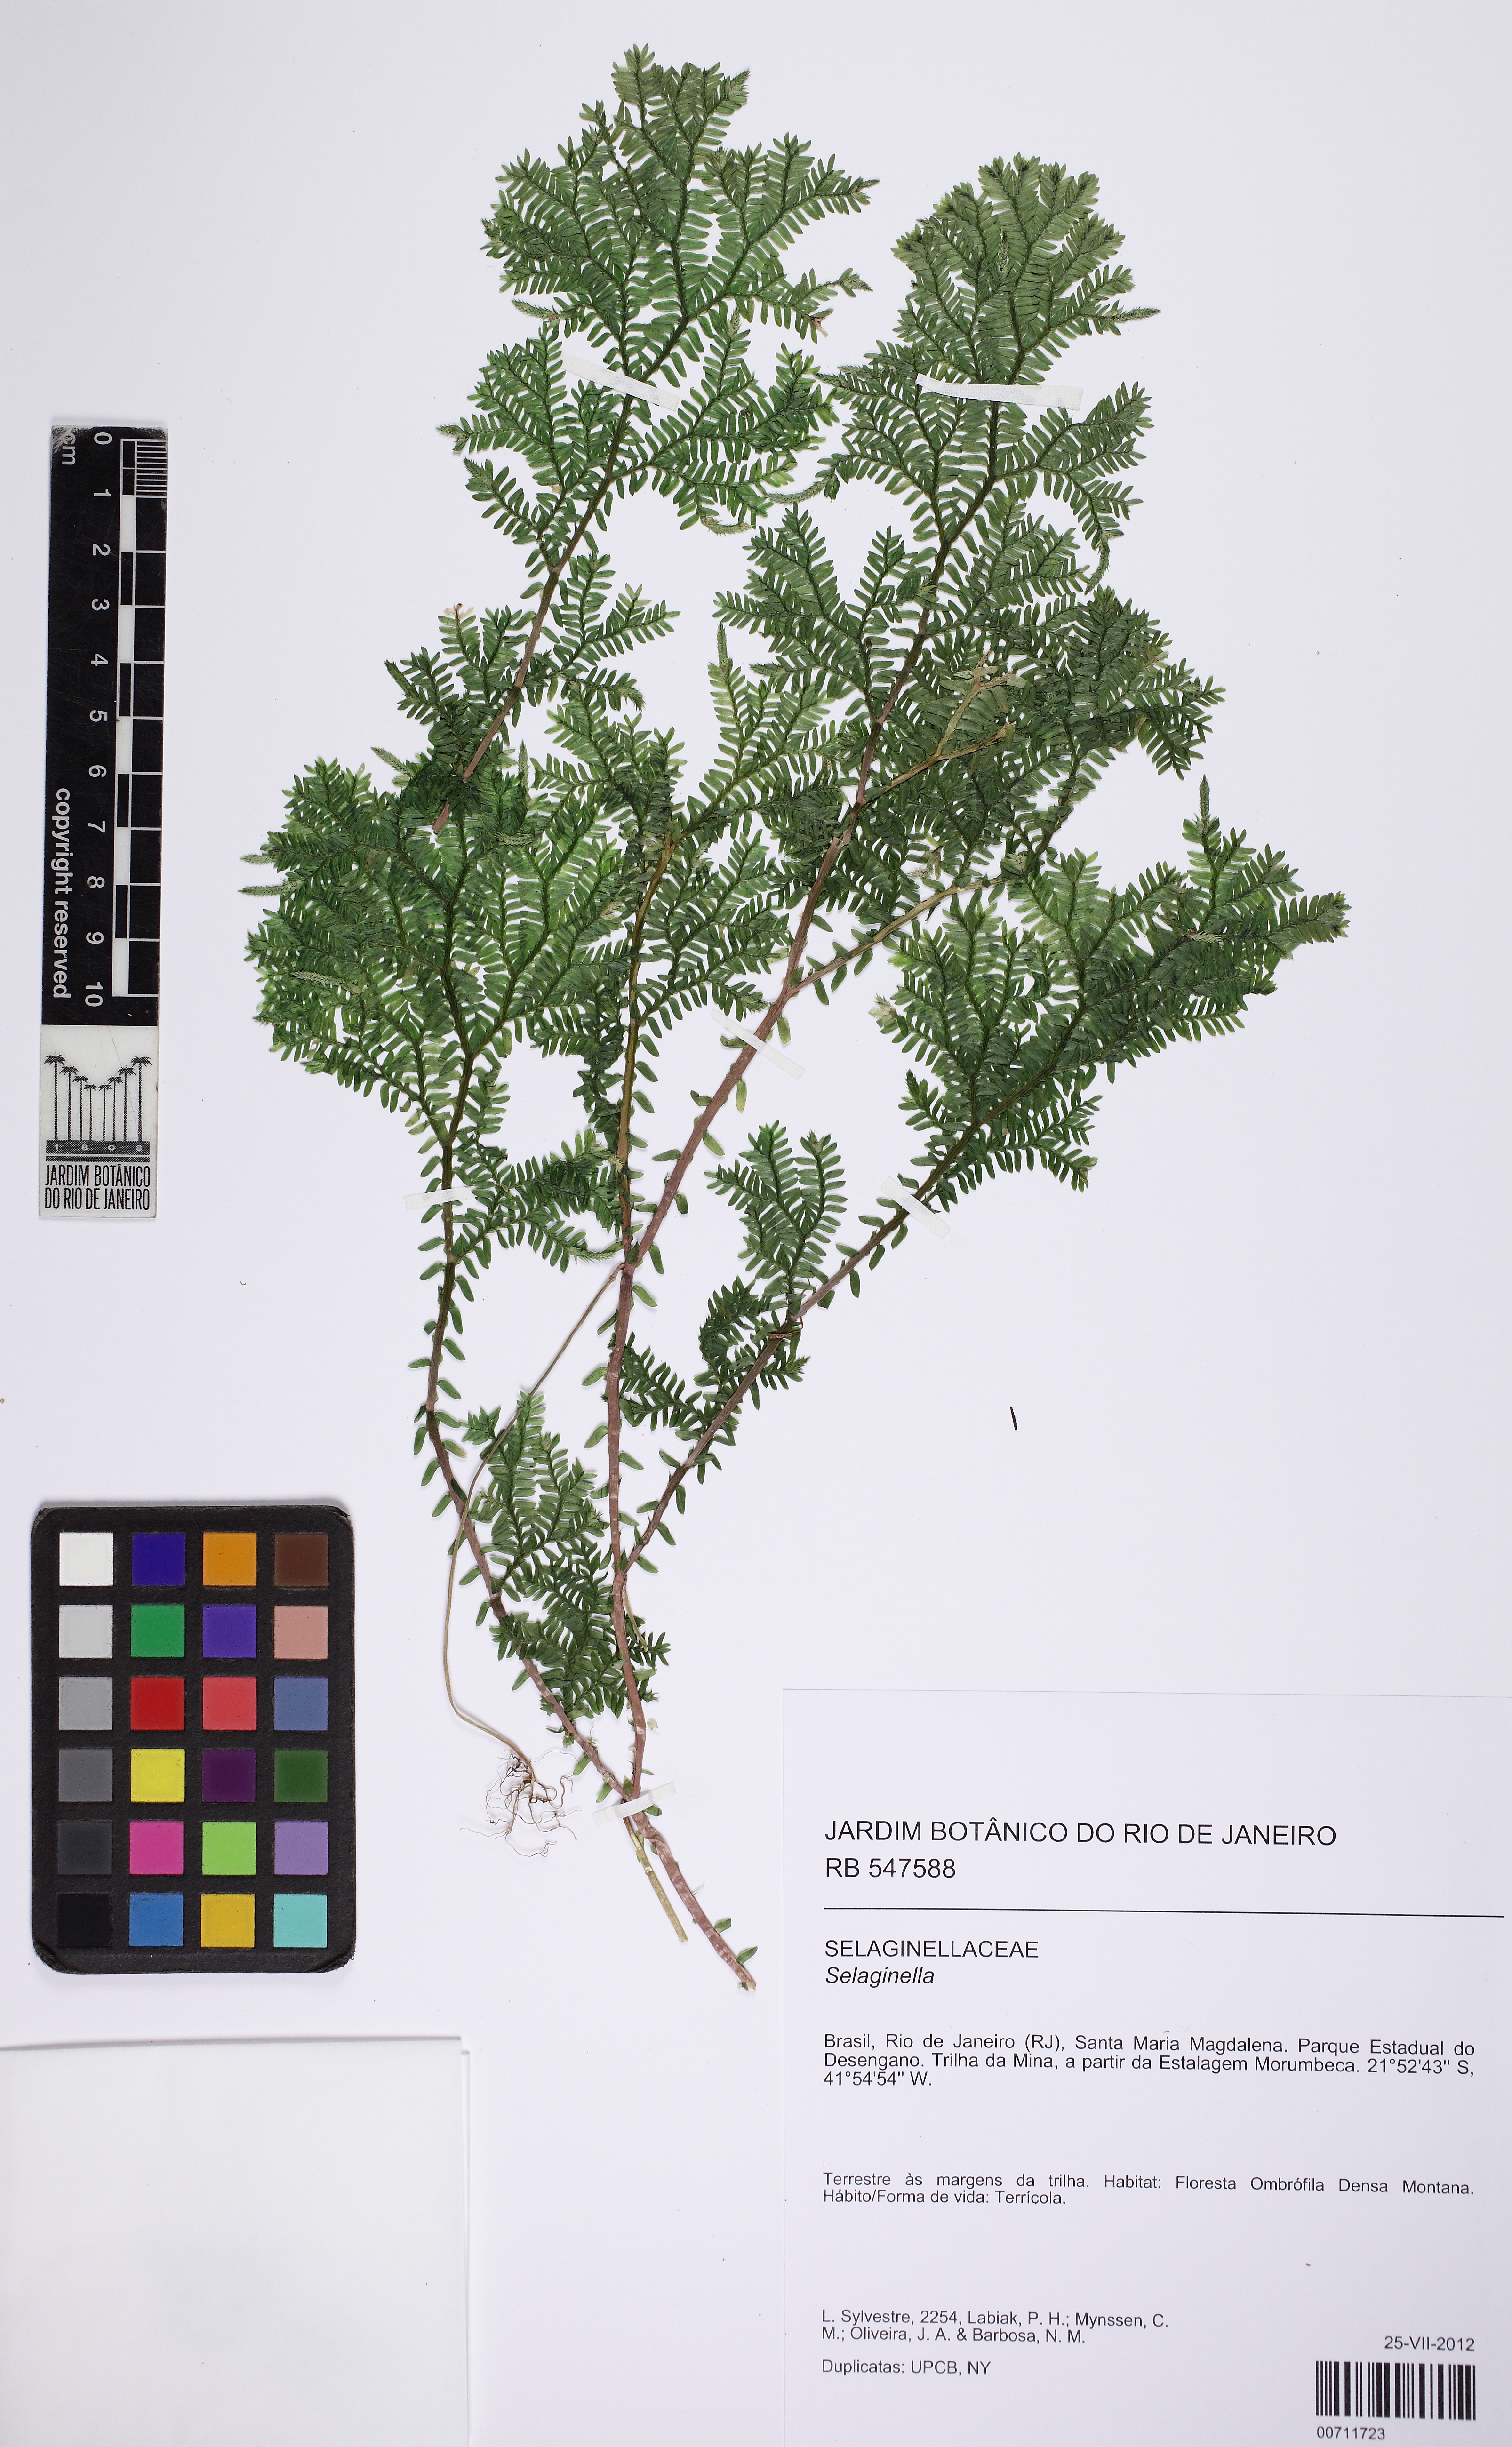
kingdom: Plantae
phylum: Tracheophyta
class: Lycopodiopsida
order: Selaginellales
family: Selaginellaceae
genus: Selaginella
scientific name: Selaginella valida
